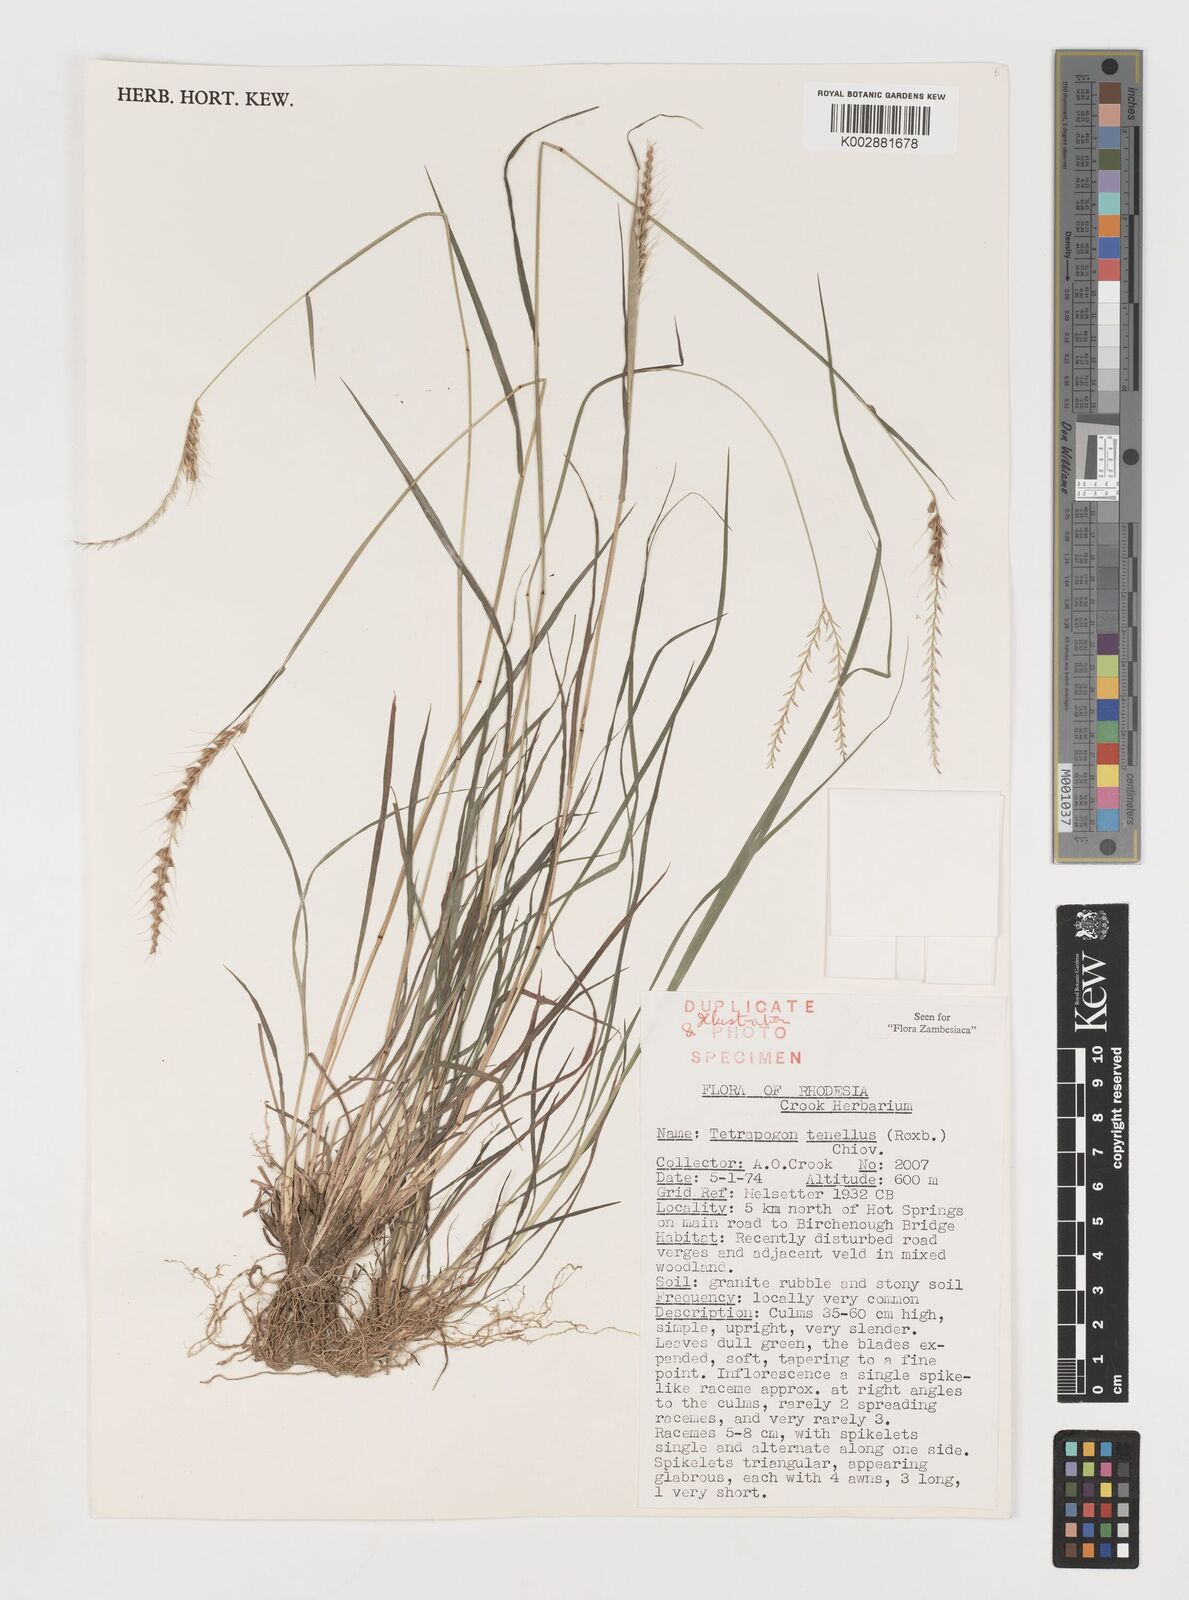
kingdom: Plantae
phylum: Tracheophyta
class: Liliopsida
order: Poales
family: Poaceae
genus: Tetrapogon
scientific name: Tetrapogon tenellus
